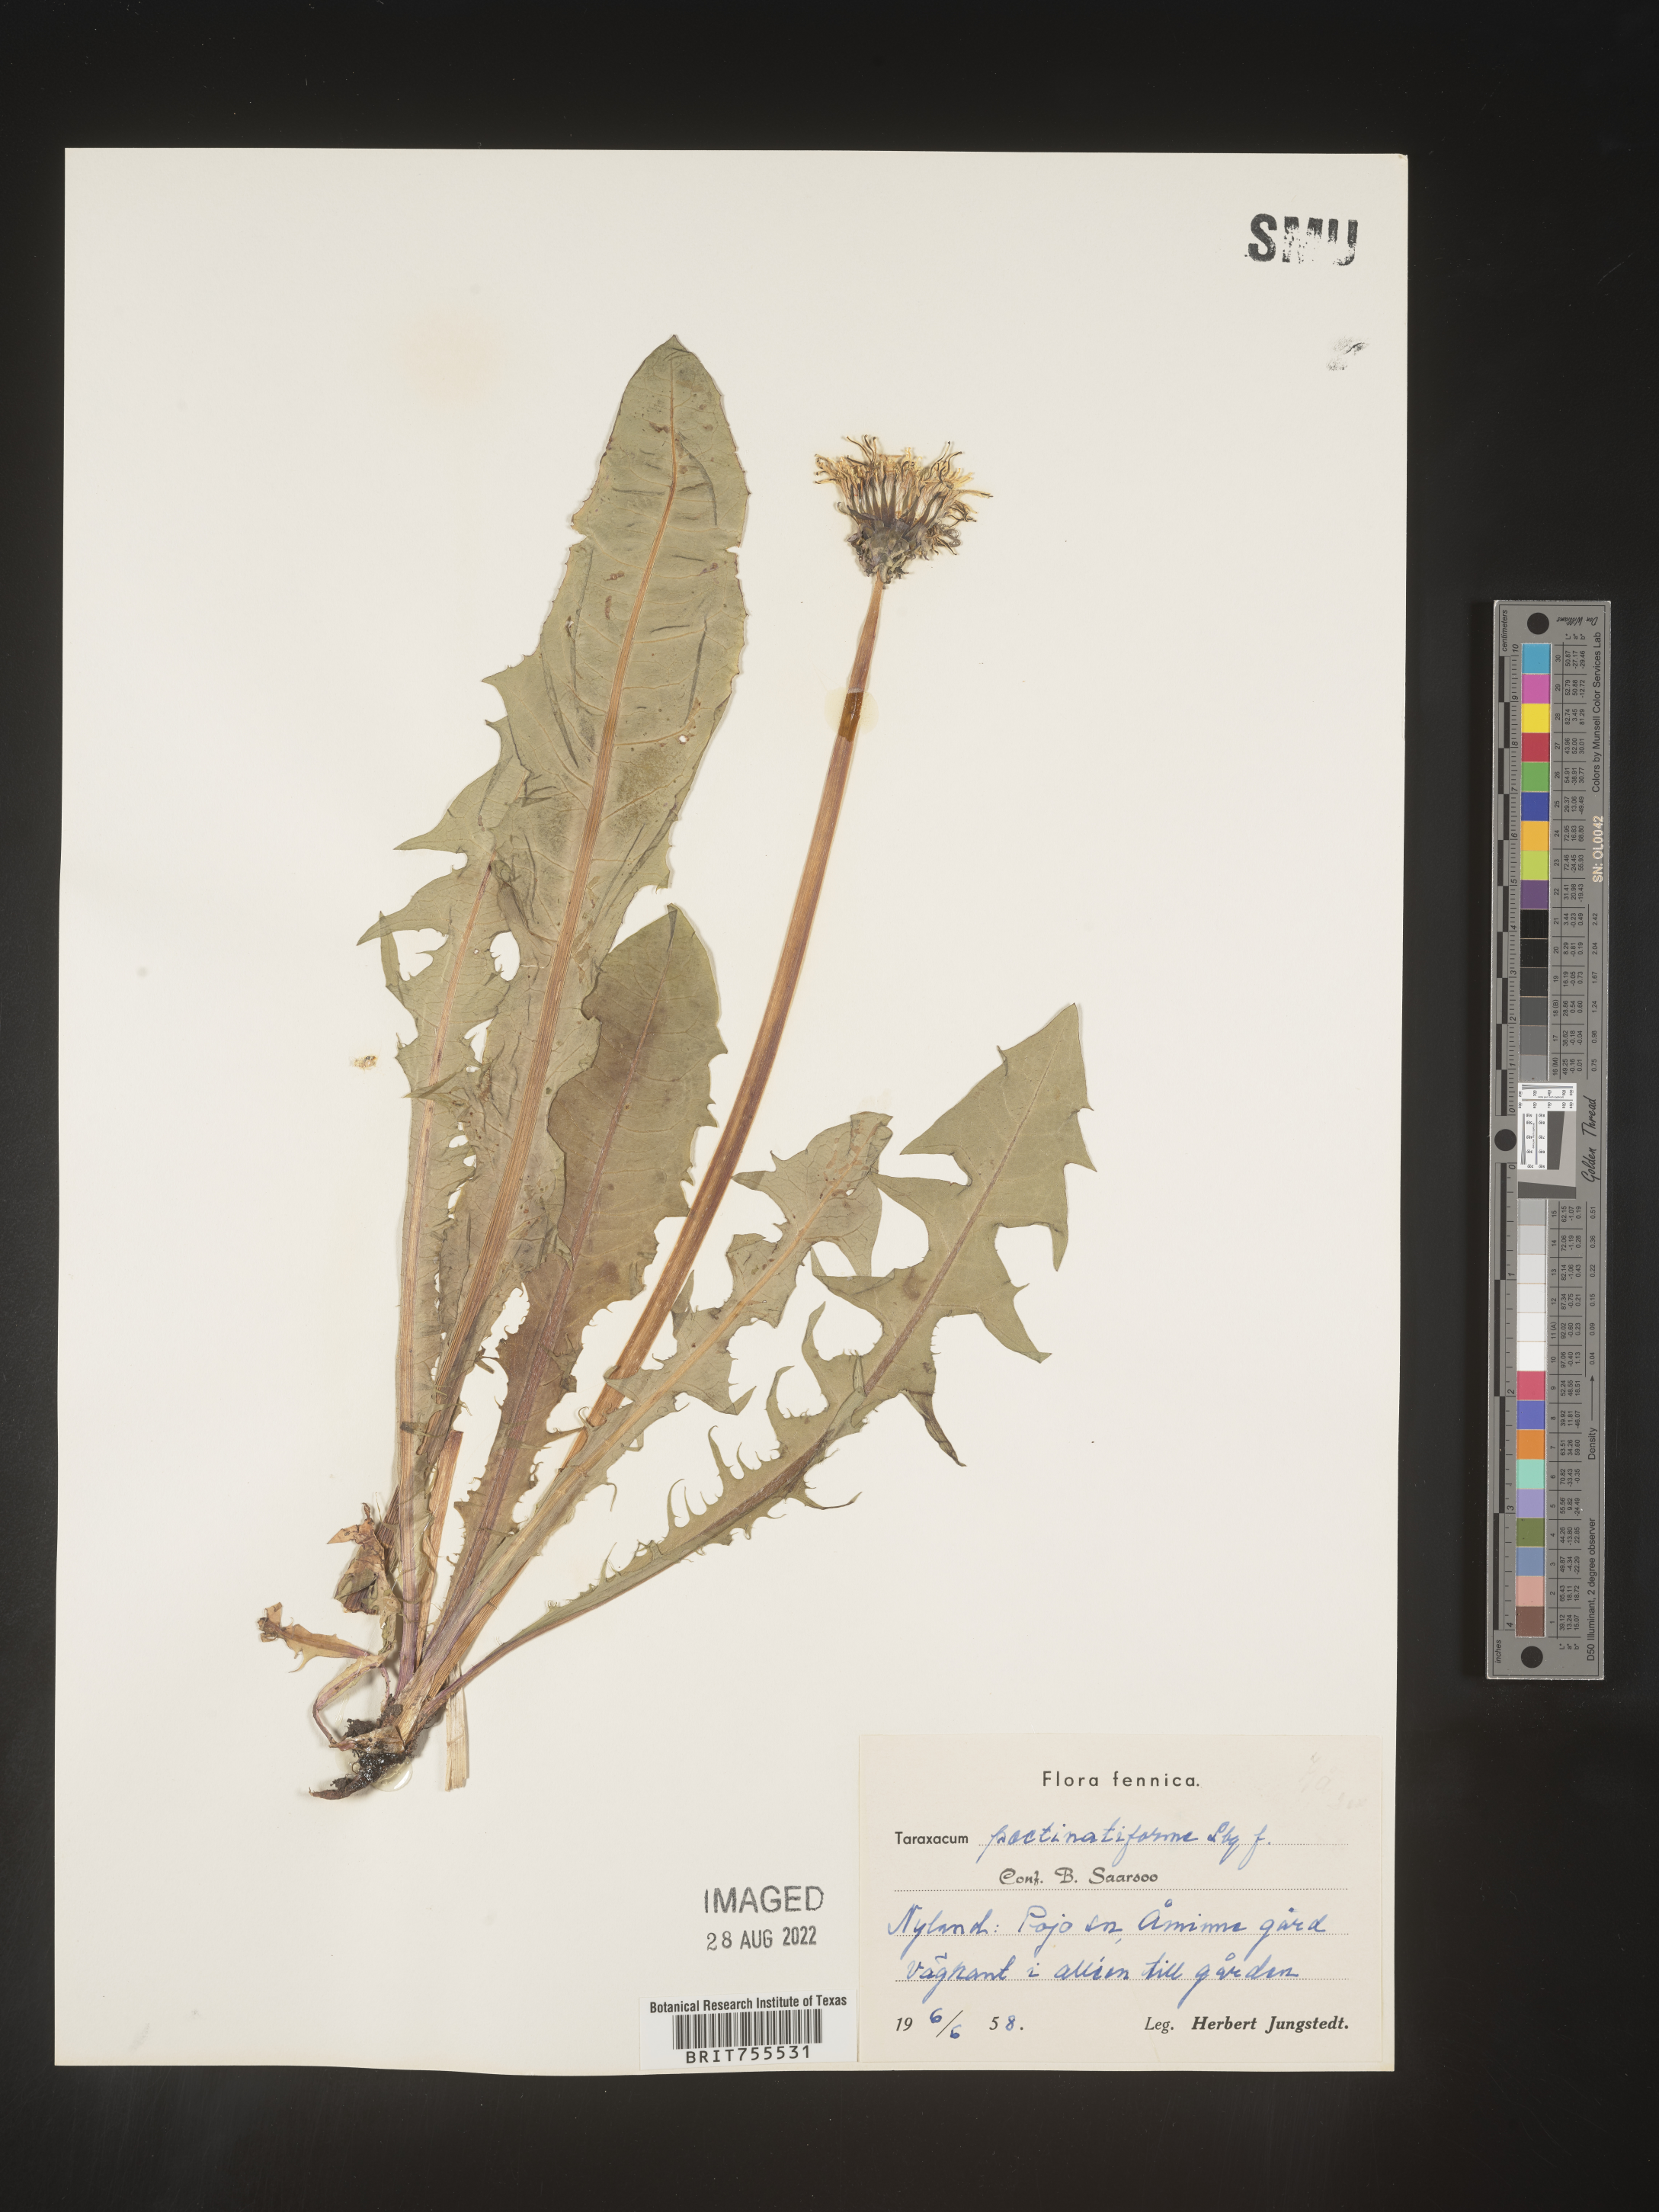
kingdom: Plantae
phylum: Tracheophyta
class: Magnoliopsida
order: Asterales
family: Asteraceae
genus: Taraxacum
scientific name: Taraxacum
